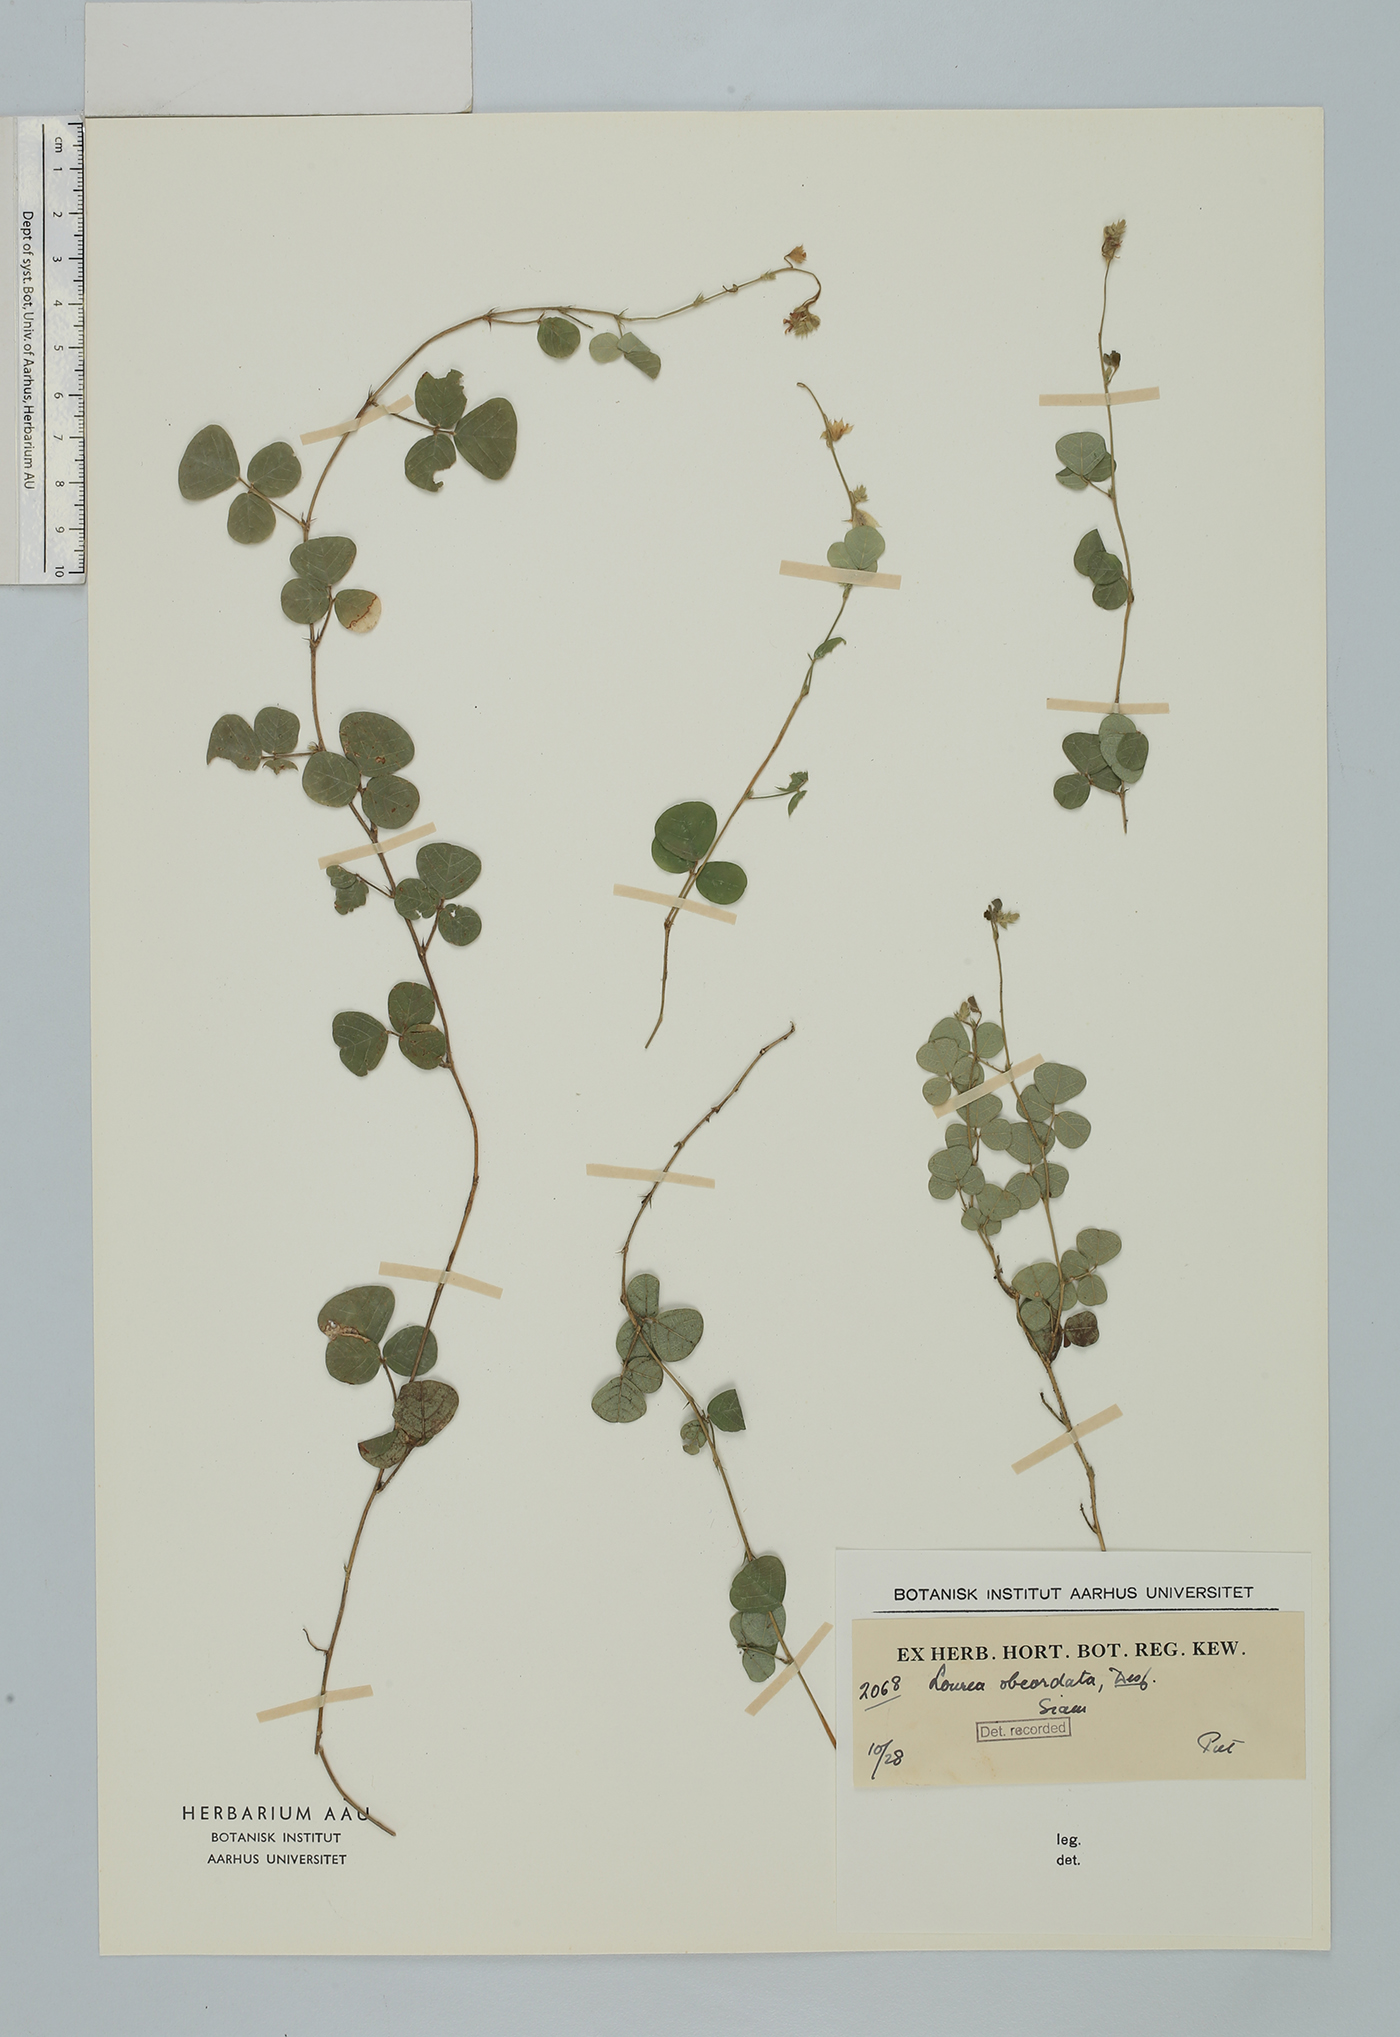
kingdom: Plantae
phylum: Tracheophyta
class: Magnoliopsida
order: Fabales
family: Fabaceae
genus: Christia
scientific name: Christia obcordata
